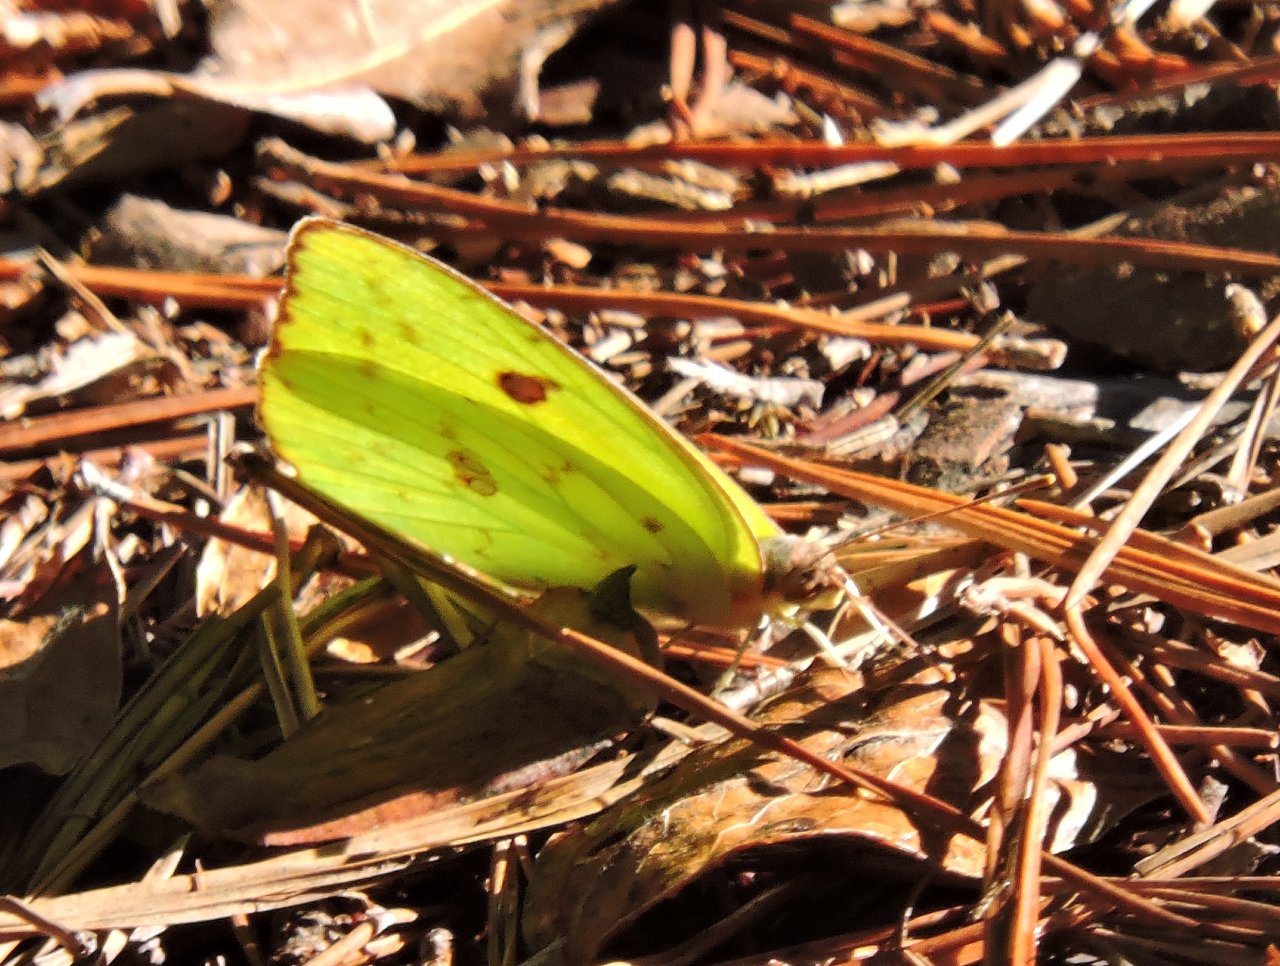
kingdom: Animalia
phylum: Arthropoda
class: Insecta
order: Lepidoptera
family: Pieridae
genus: Phoebis
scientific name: Phoebis sennae
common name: Cloudless Sulphur
